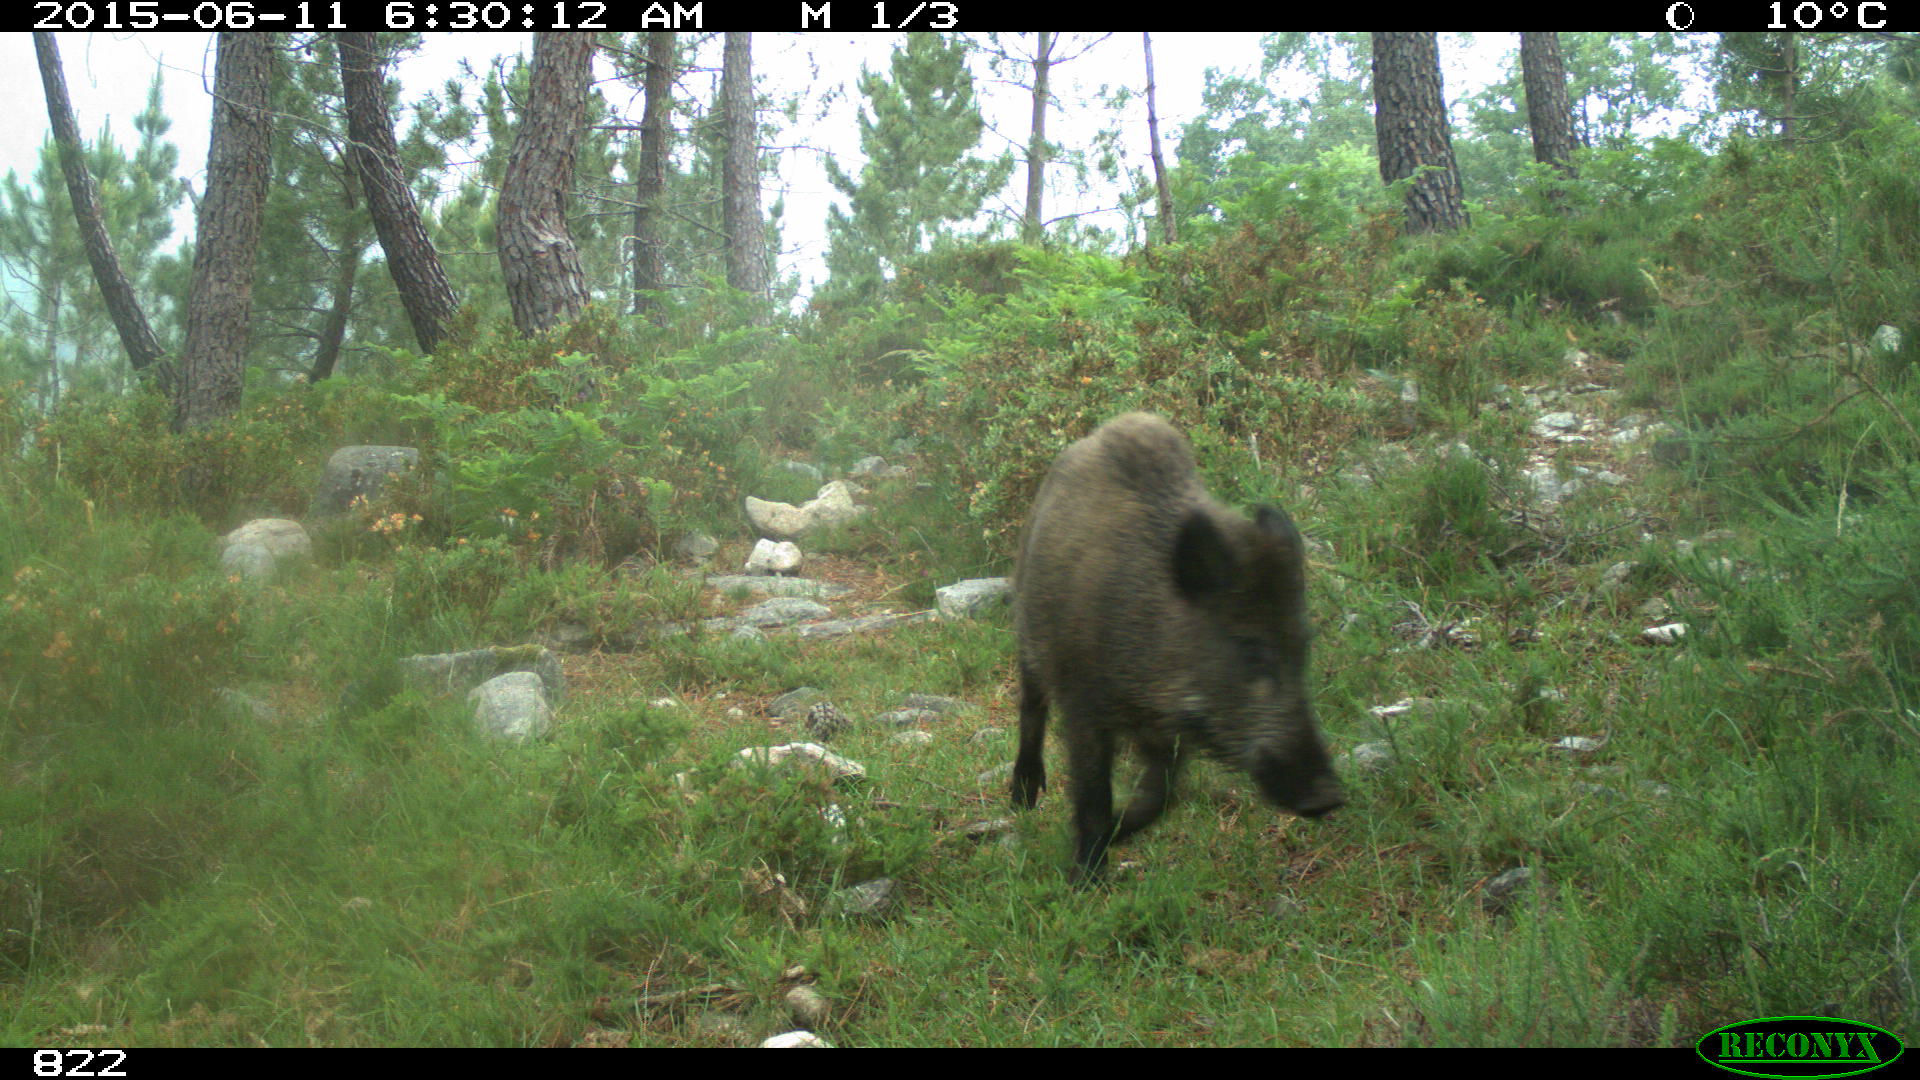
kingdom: Animalia
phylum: Chordata
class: Mammalia
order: Artiodactyla
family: Suidae
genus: Sus
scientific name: Sus scrofa
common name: Wild boar
